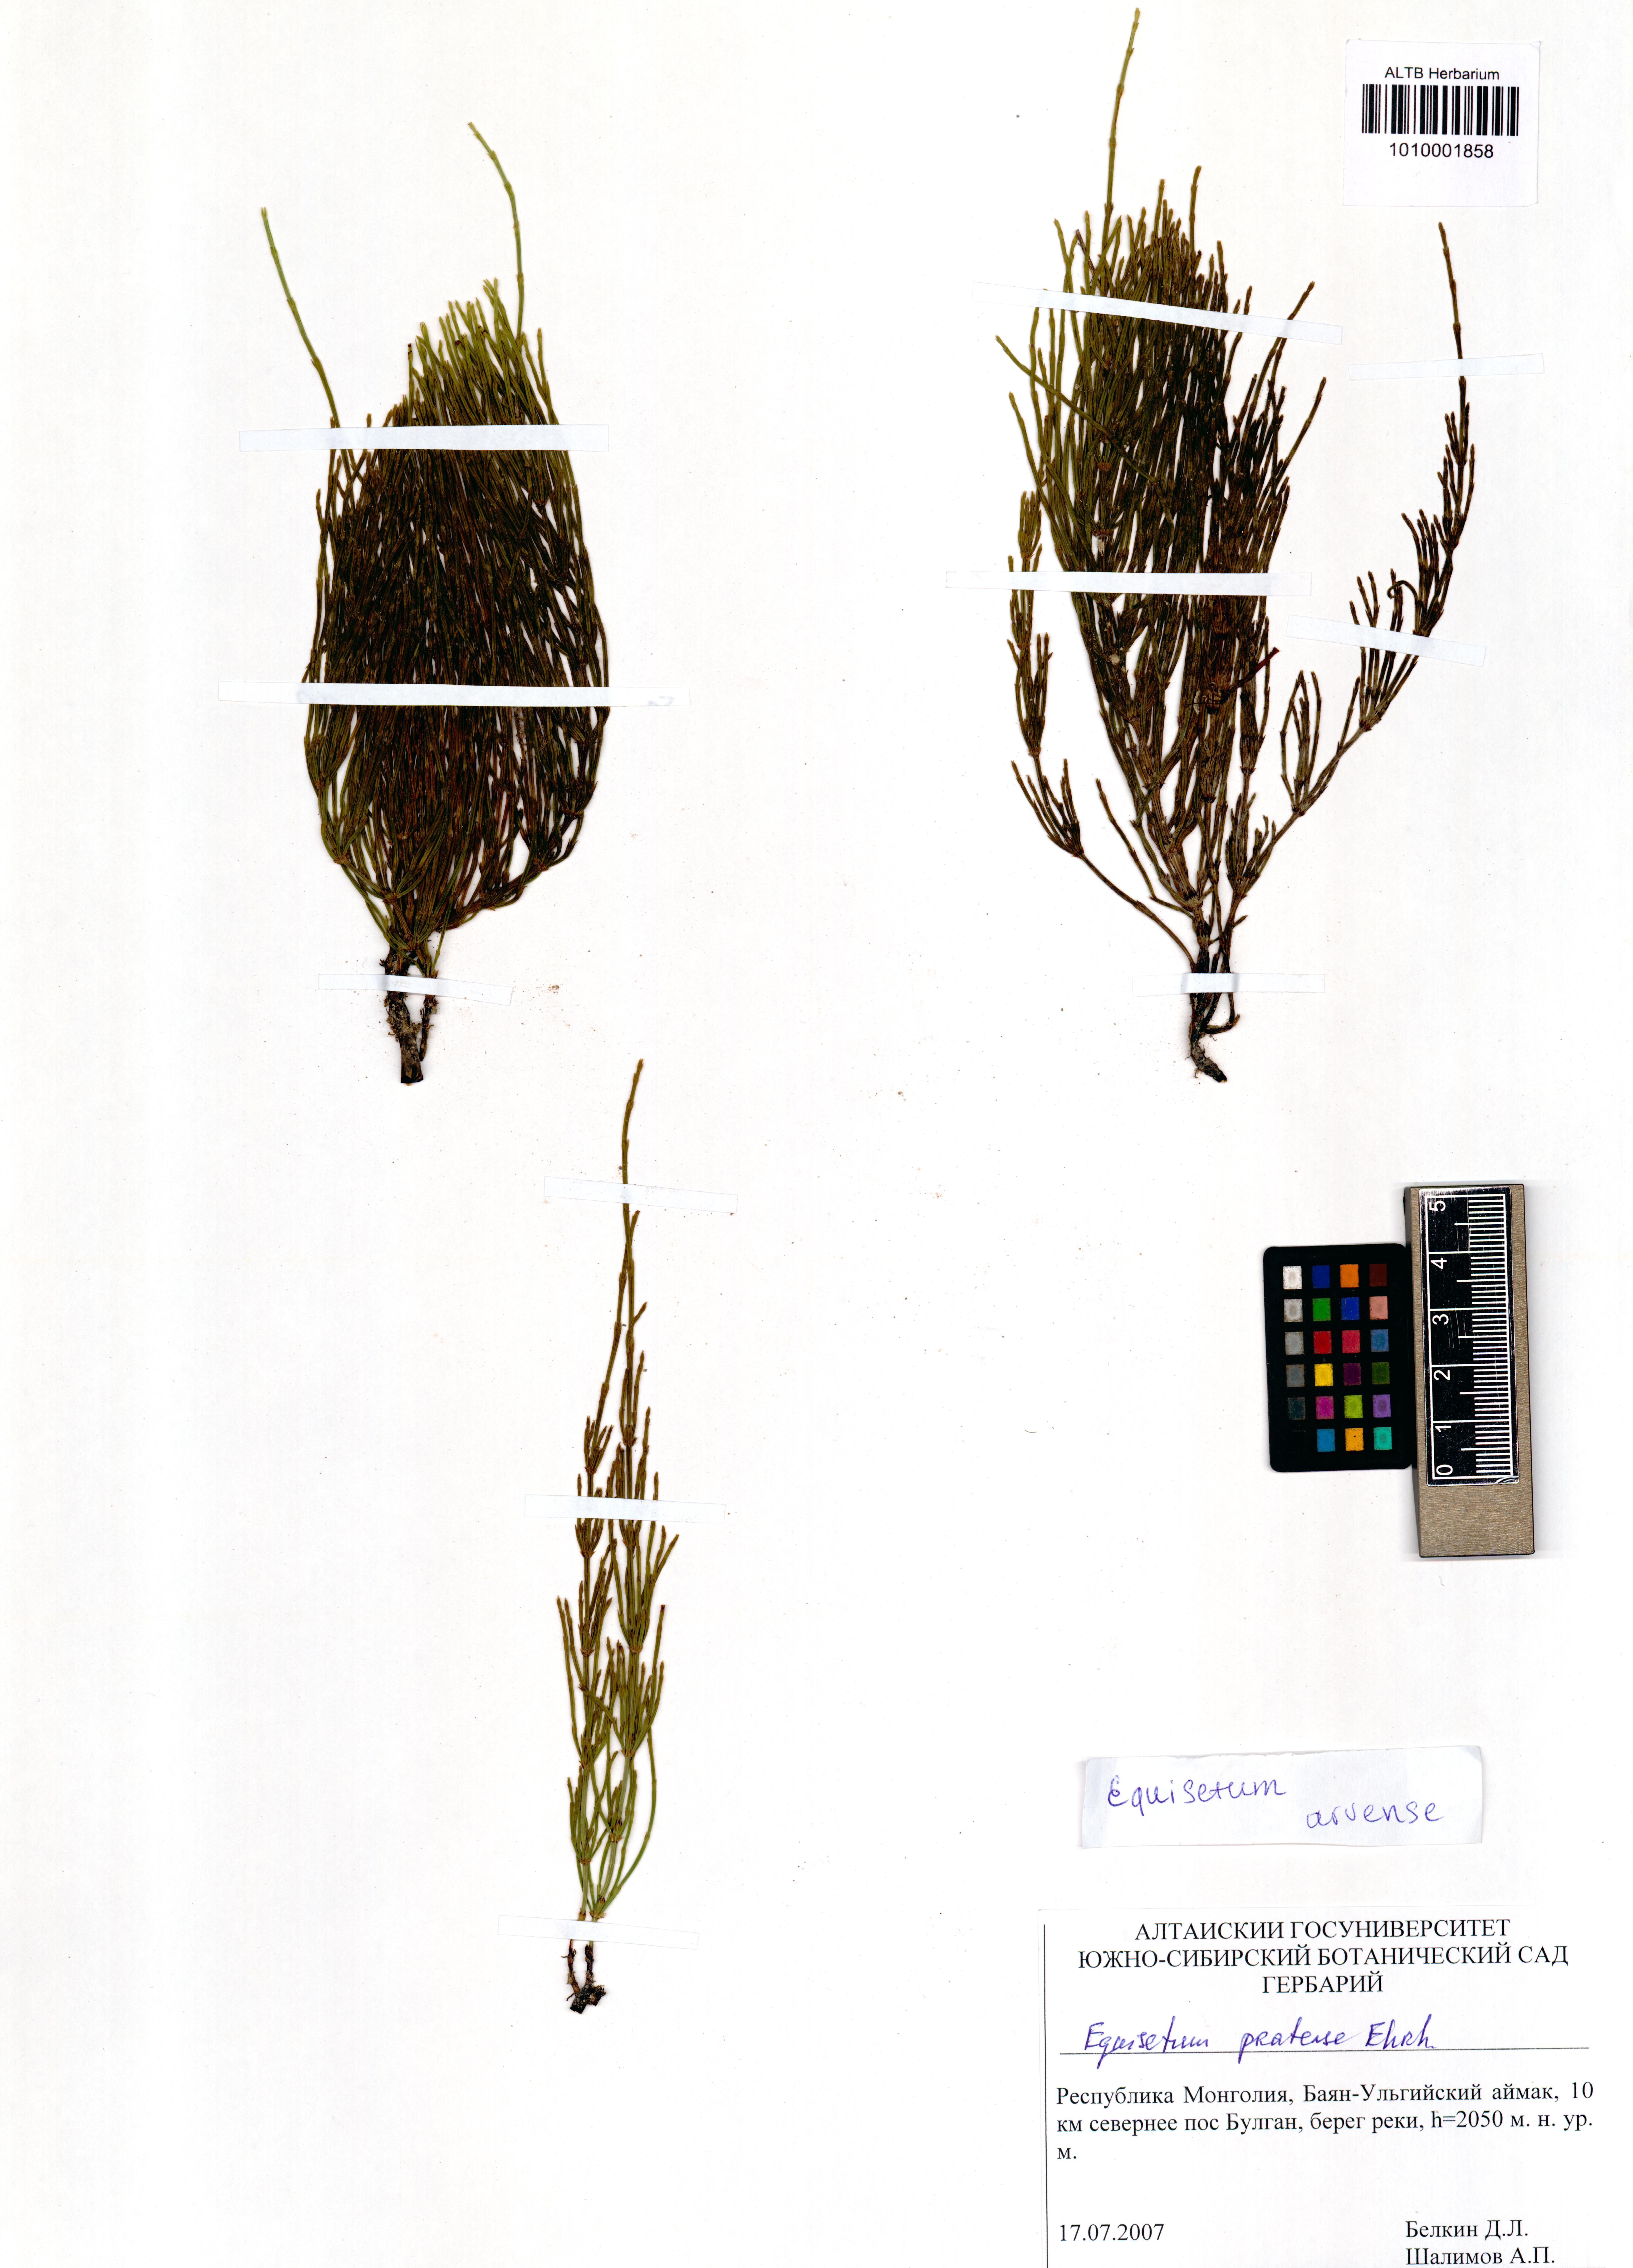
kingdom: Plantae
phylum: Tracheophyta
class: Polypodiopsida
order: Equisetales
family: Equisetaceae
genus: Equisetum
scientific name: Equisetum arvense
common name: Field horsetail
